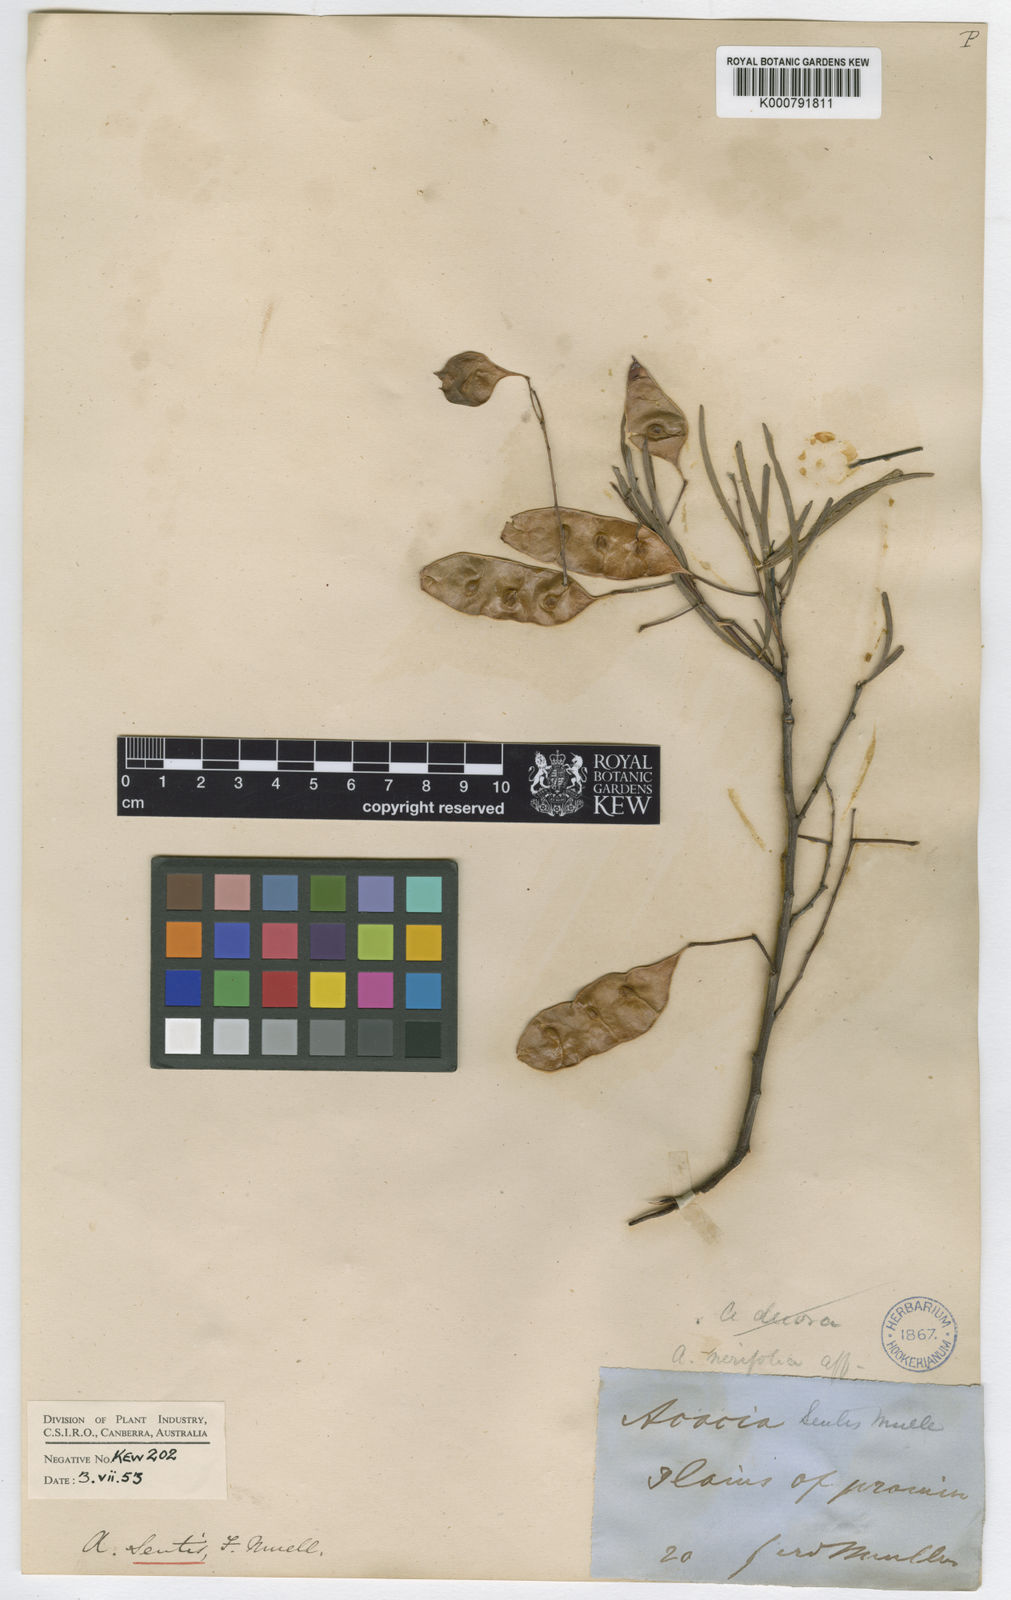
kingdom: Plantae
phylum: Tracheophyta
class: Magnoliopsida
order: Fabales
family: Fabaceae
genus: Acacia
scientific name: Acacia victoriae
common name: Bramble wattle
